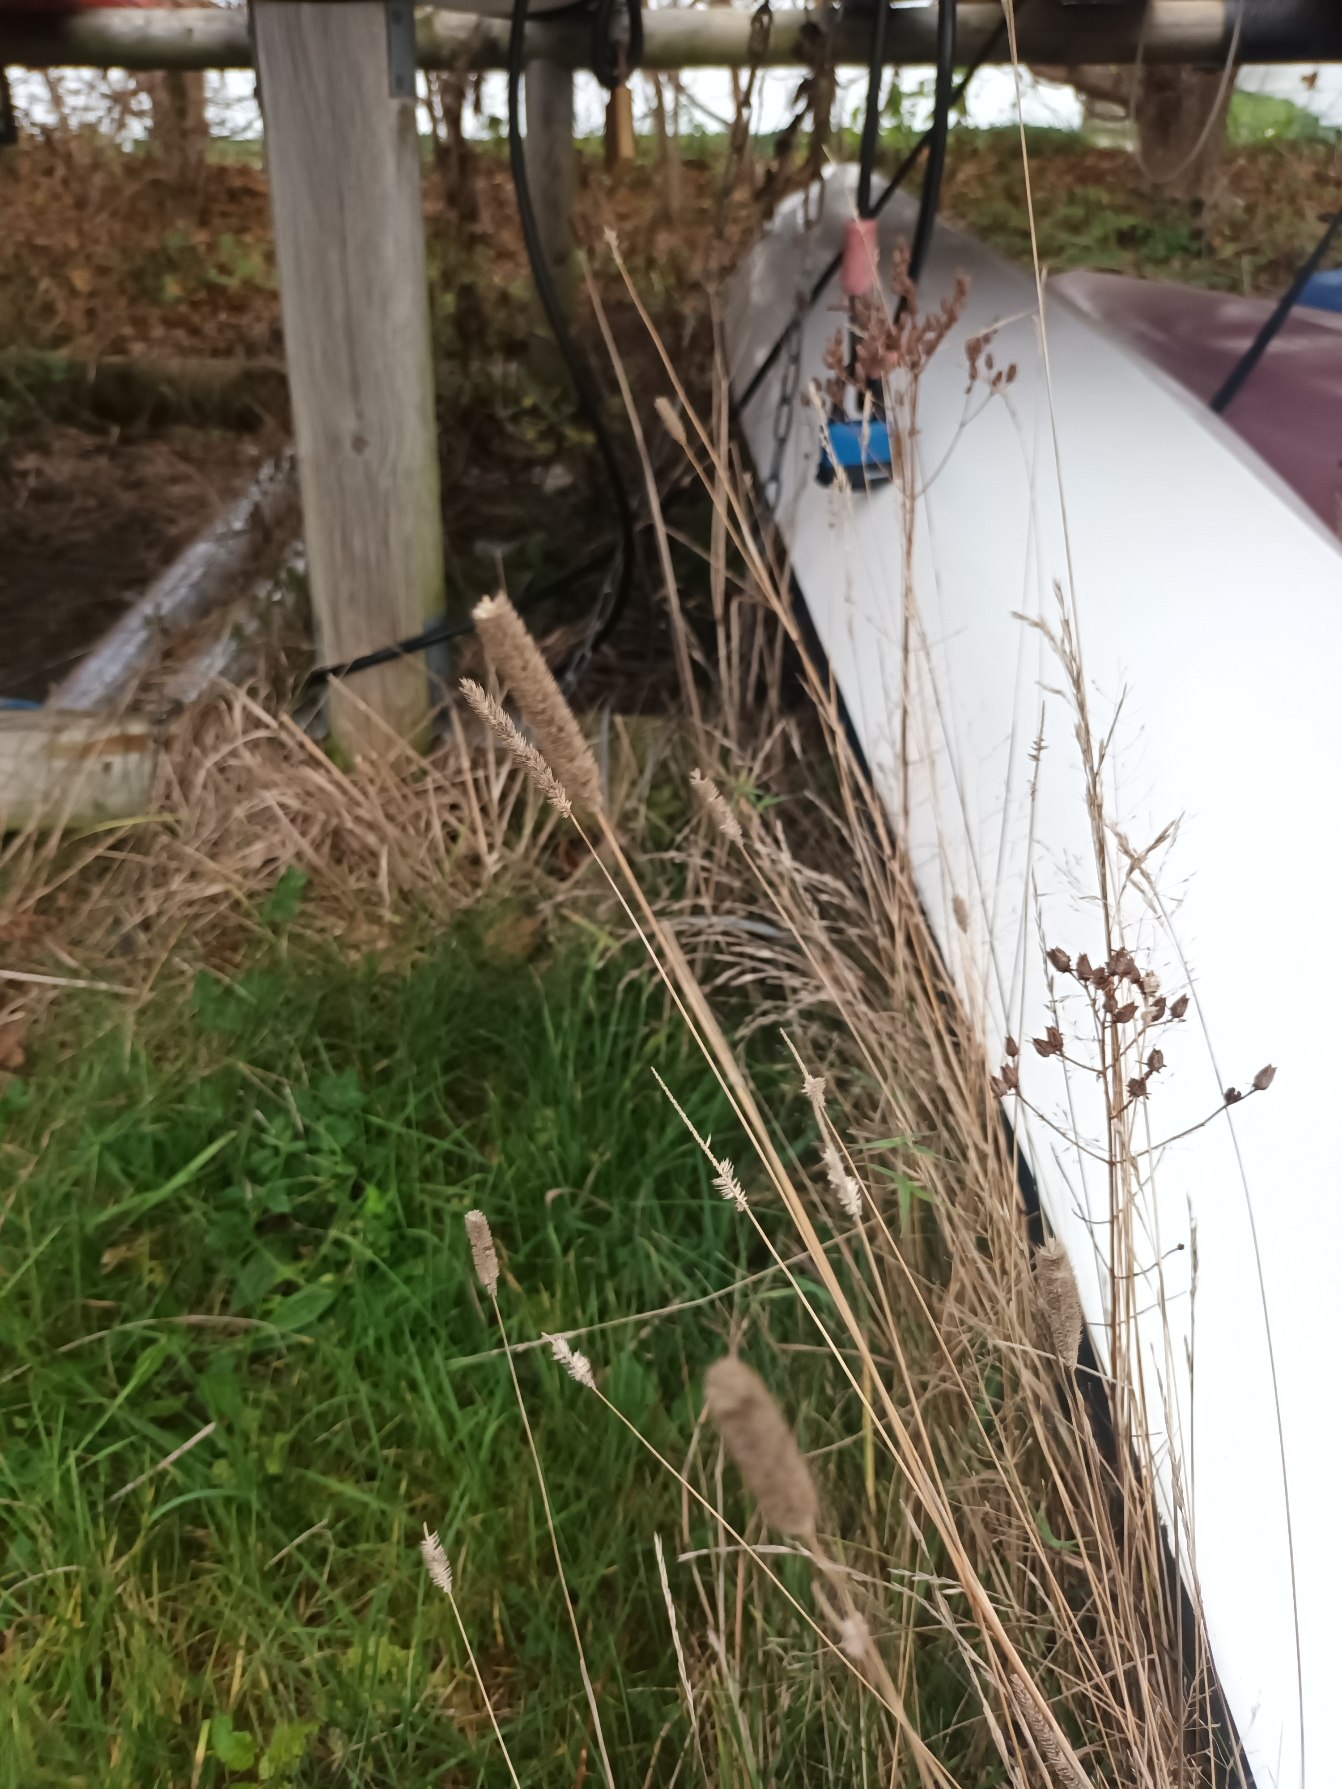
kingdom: Plantae
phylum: Tracheophyta
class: Liliopsida
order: Poales
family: Poaceae
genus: Phleum
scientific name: Phleum pratense
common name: Eng-rottehale
